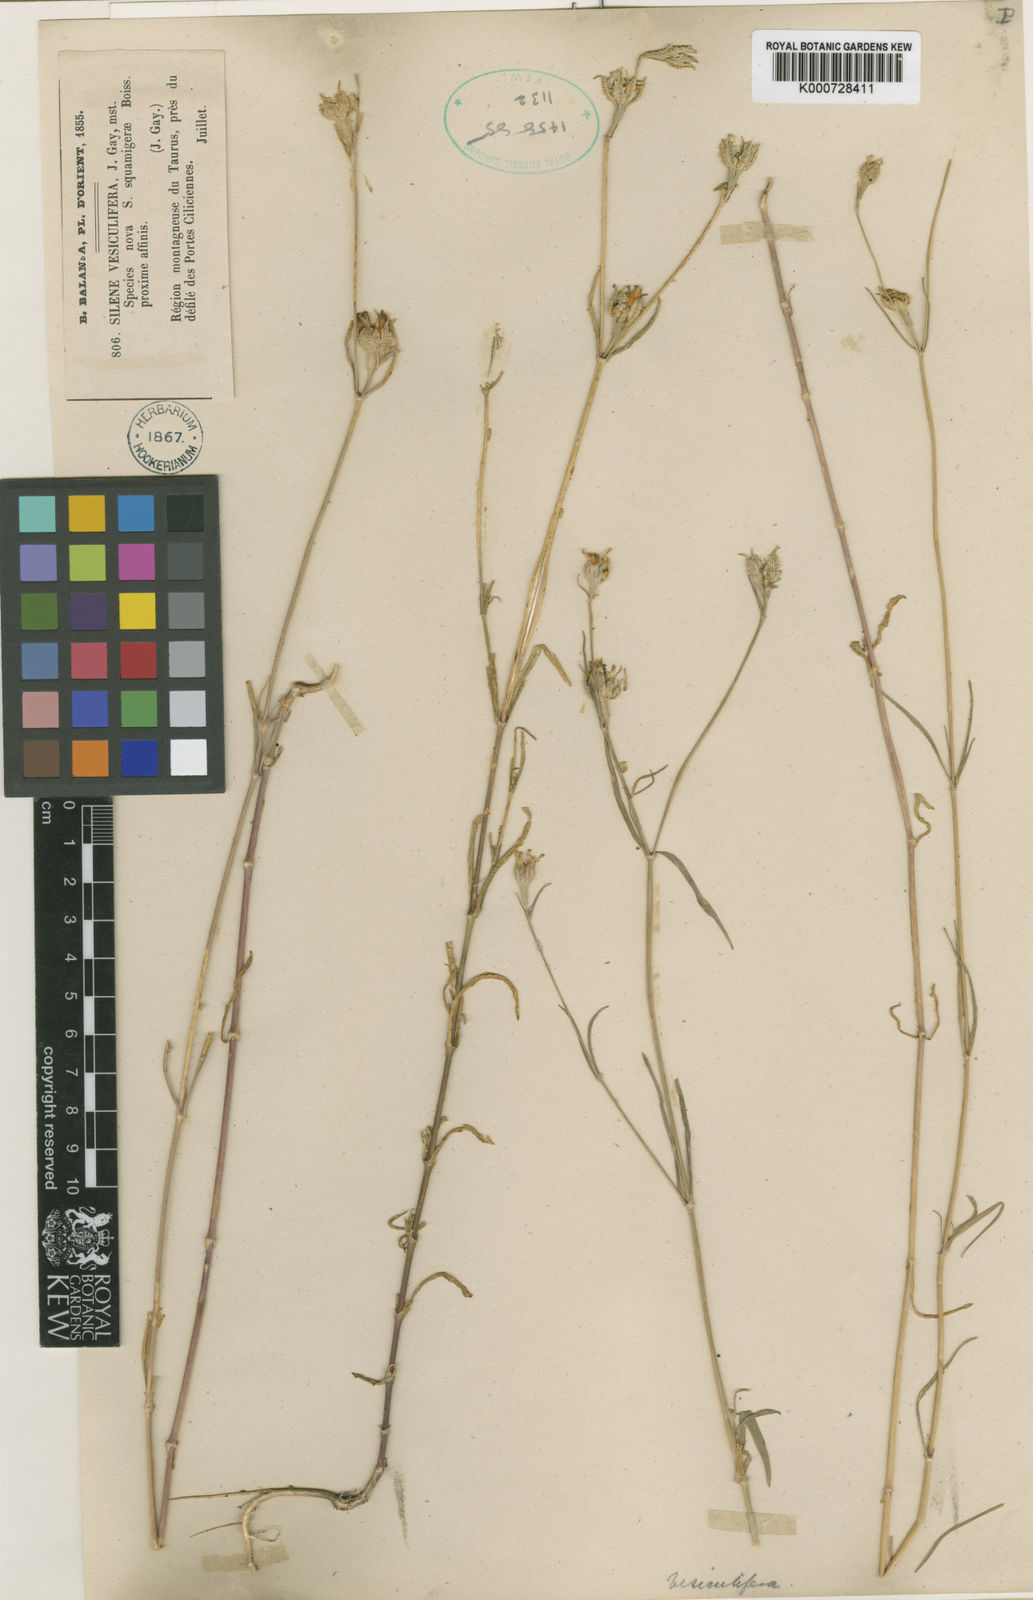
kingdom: Plantae
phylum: Tracheophyta
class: Magnoliopsida
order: Caryophyllales
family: Caryophyllaceae
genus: Silene
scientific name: Silene squamigera
